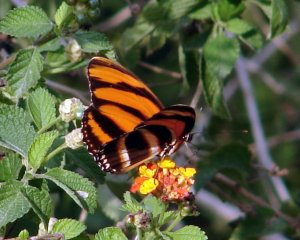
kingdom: Animalia
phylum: Arthropoda
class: Insecta
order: Lepidoptera
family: Nymphalidae
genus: Dryadula
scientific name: Dryadula phaetusa
